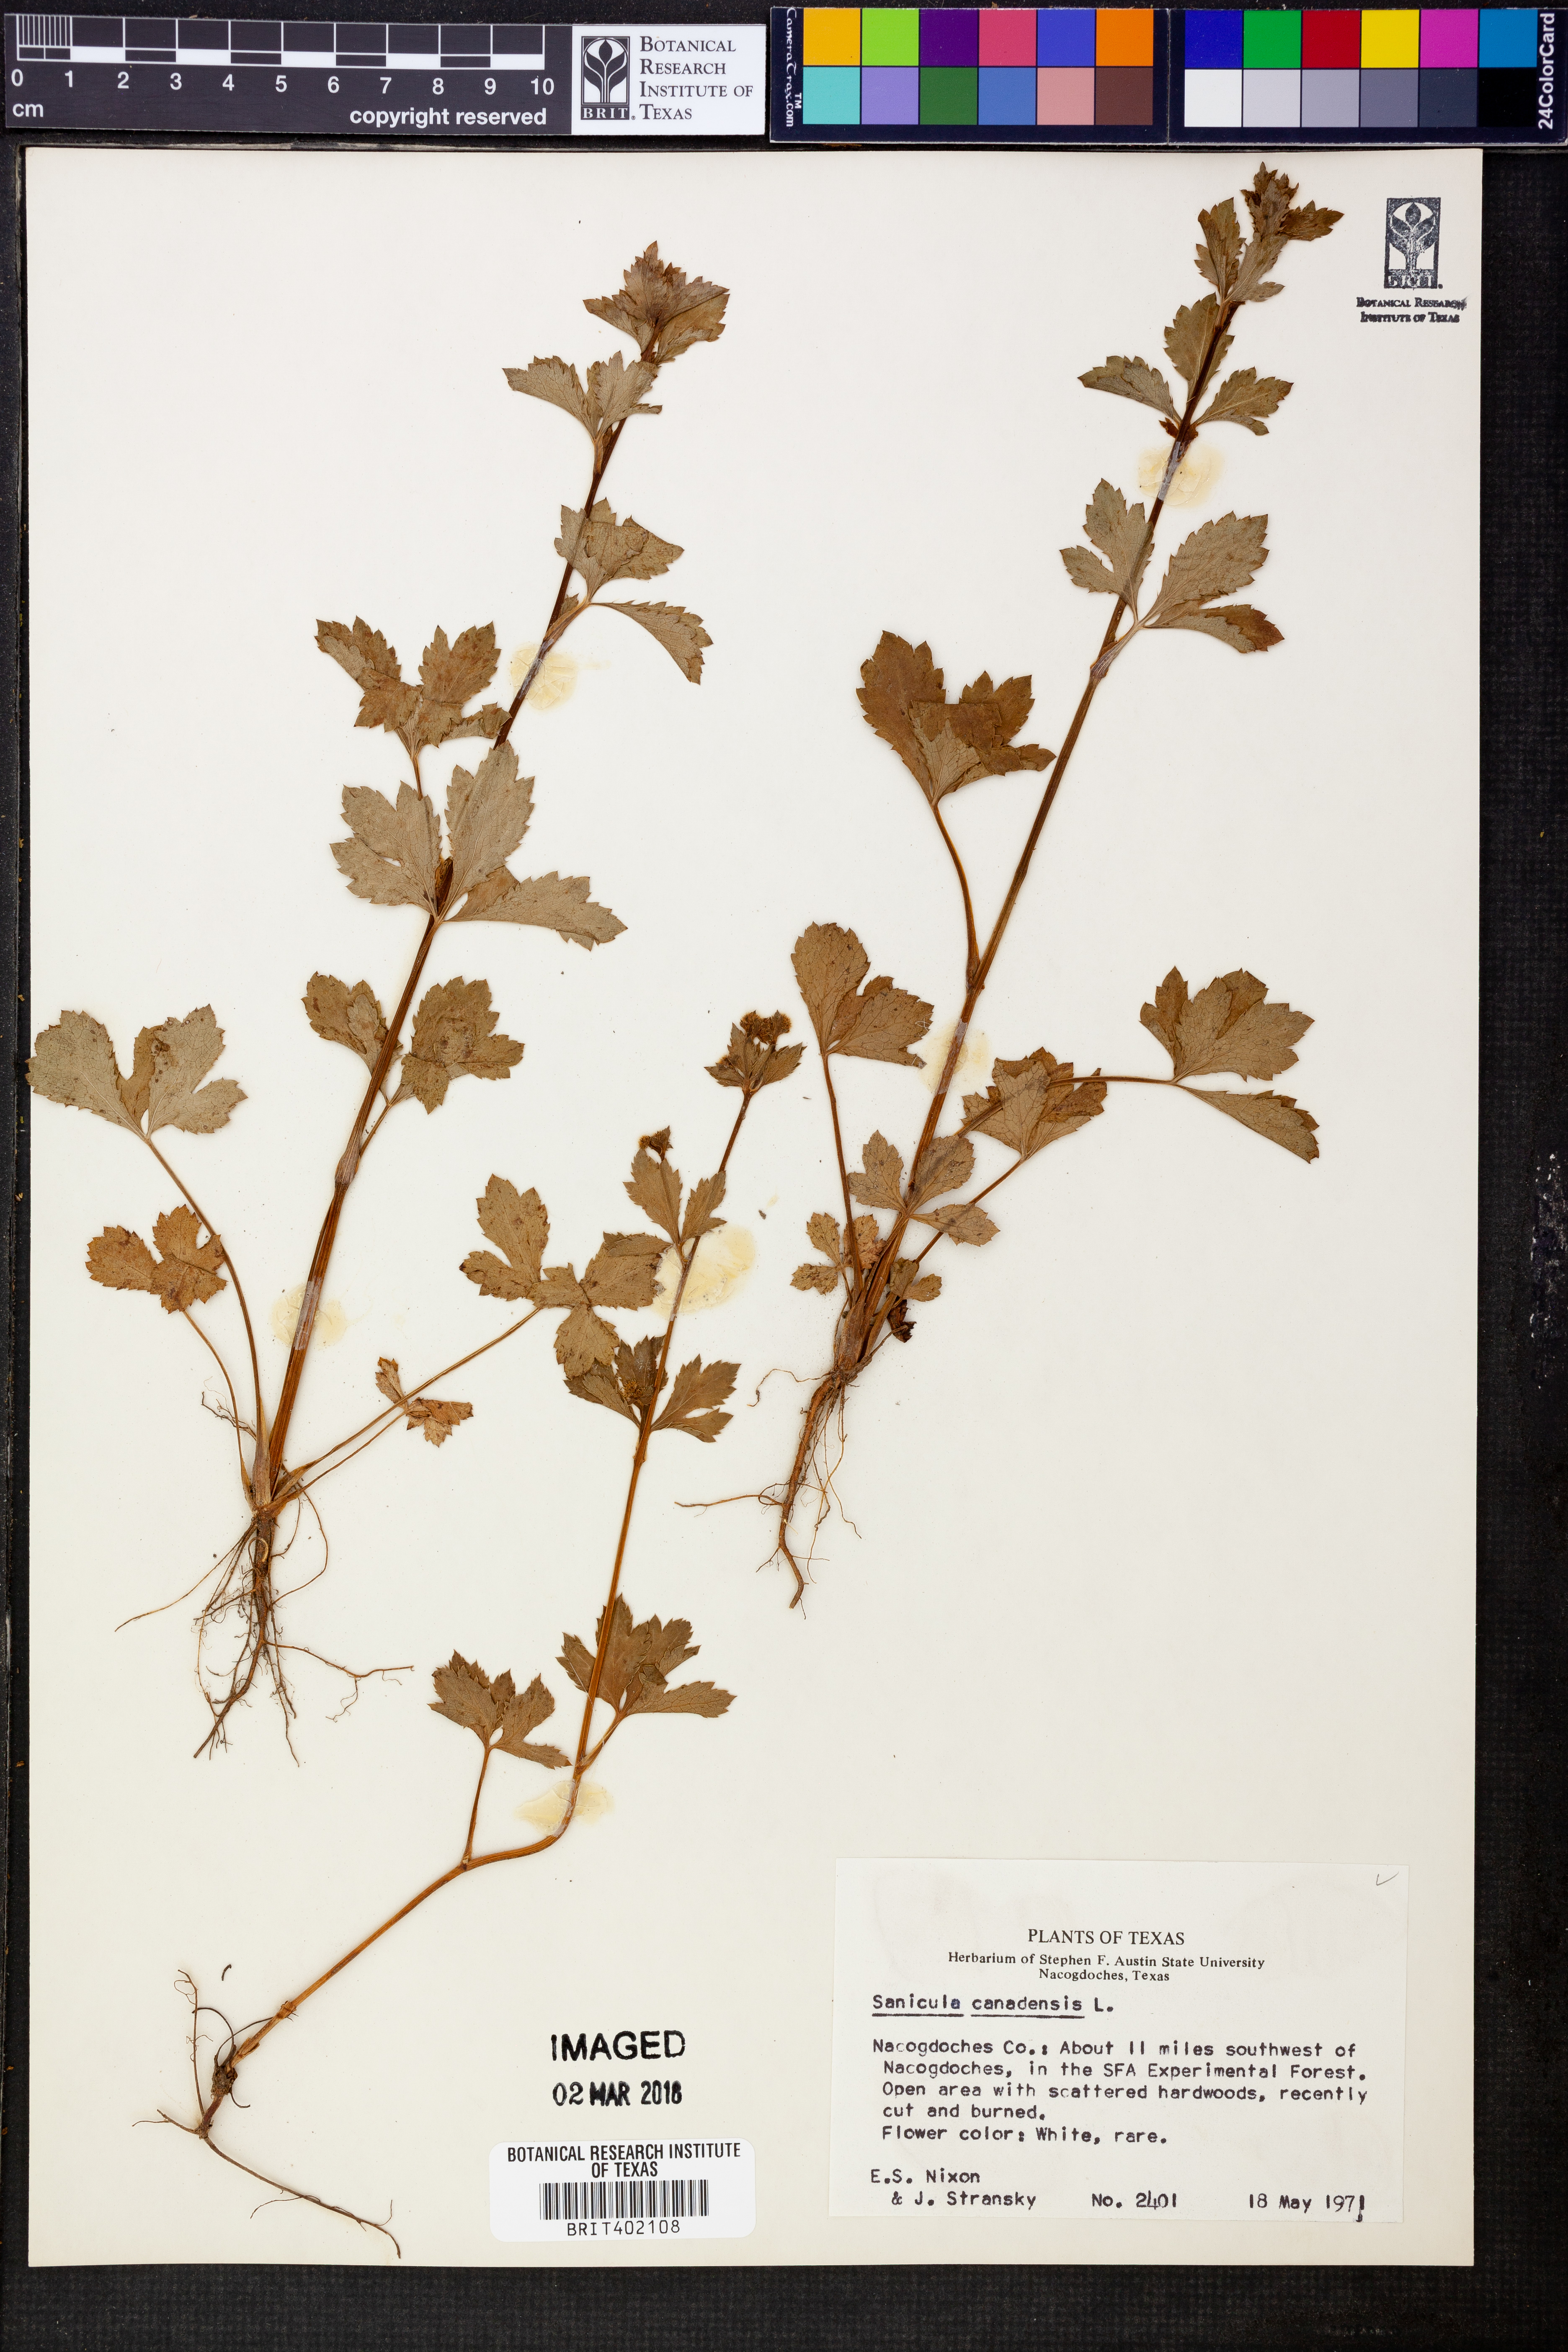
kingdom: Plantae
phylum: Tracheophyta
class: Magnoliopsida
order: Apiales
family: Apiaceae
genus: Sanicula
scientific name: Sanicula canadensis
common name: Canada sanicle
